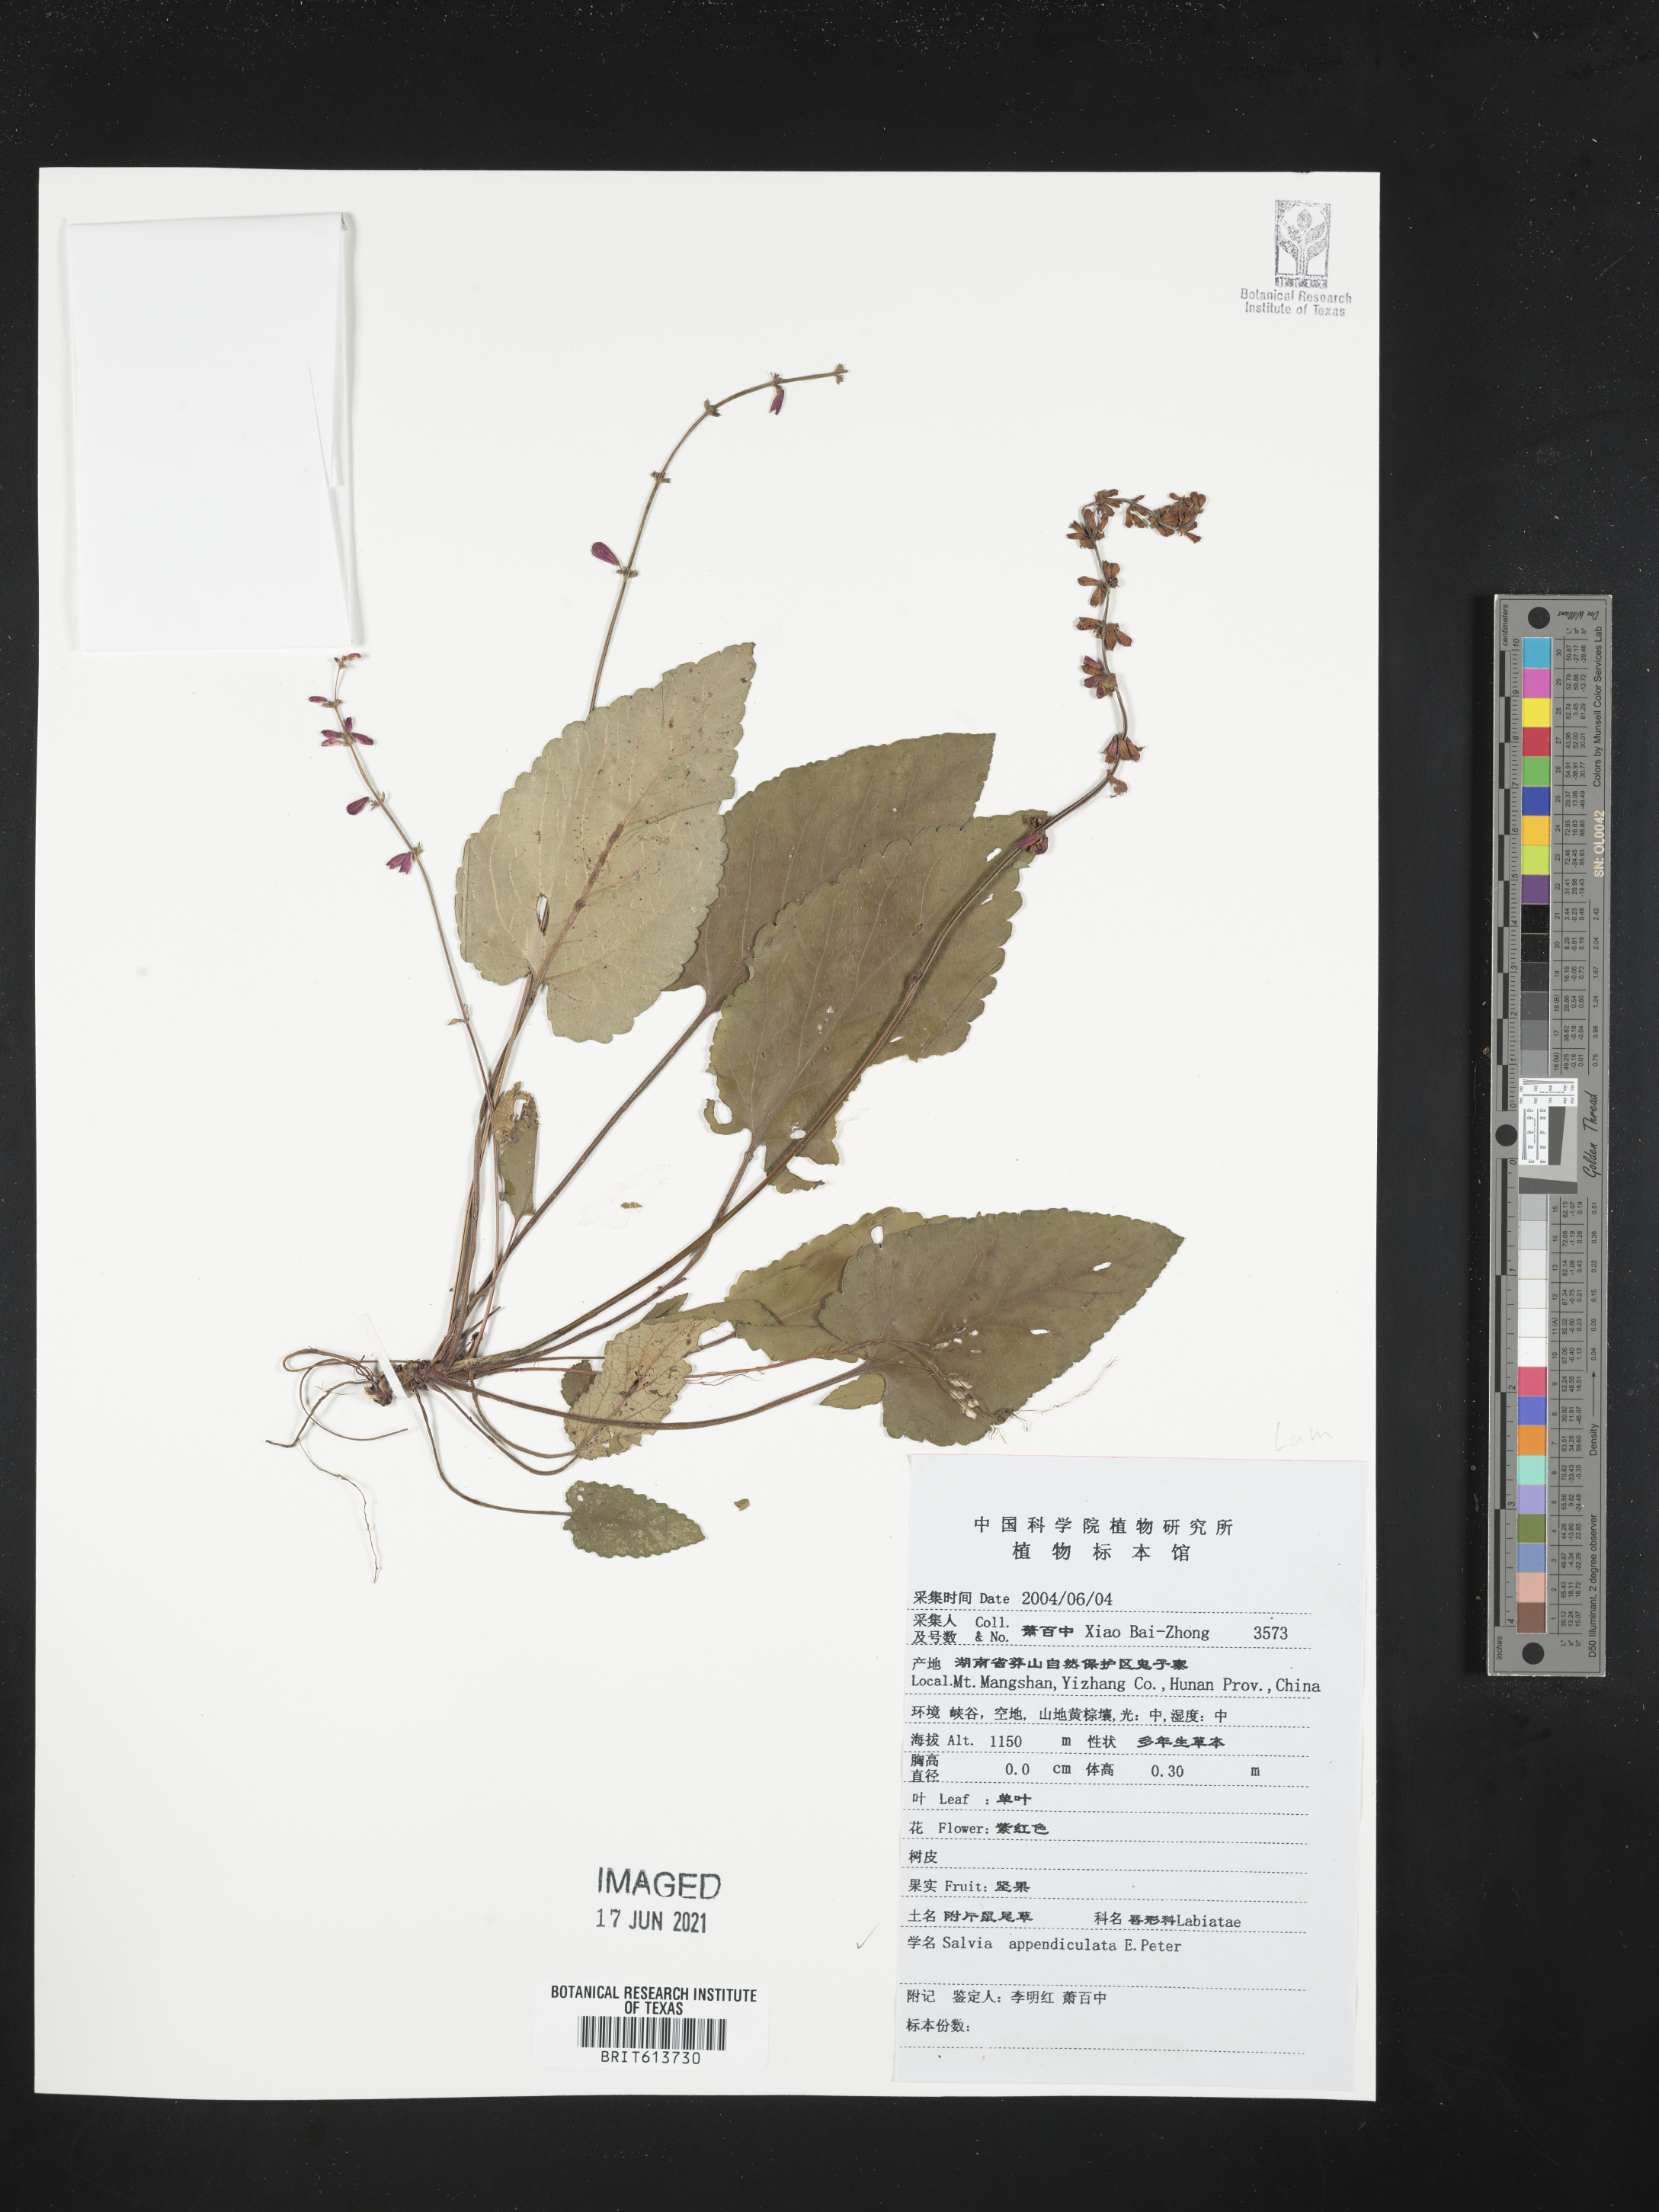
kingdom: Plantae
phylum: Tracheophyta
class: Magnoliopsida
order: Lamiales
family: Lamiaceae
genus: Salvia
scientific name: Salvia appendiculata
